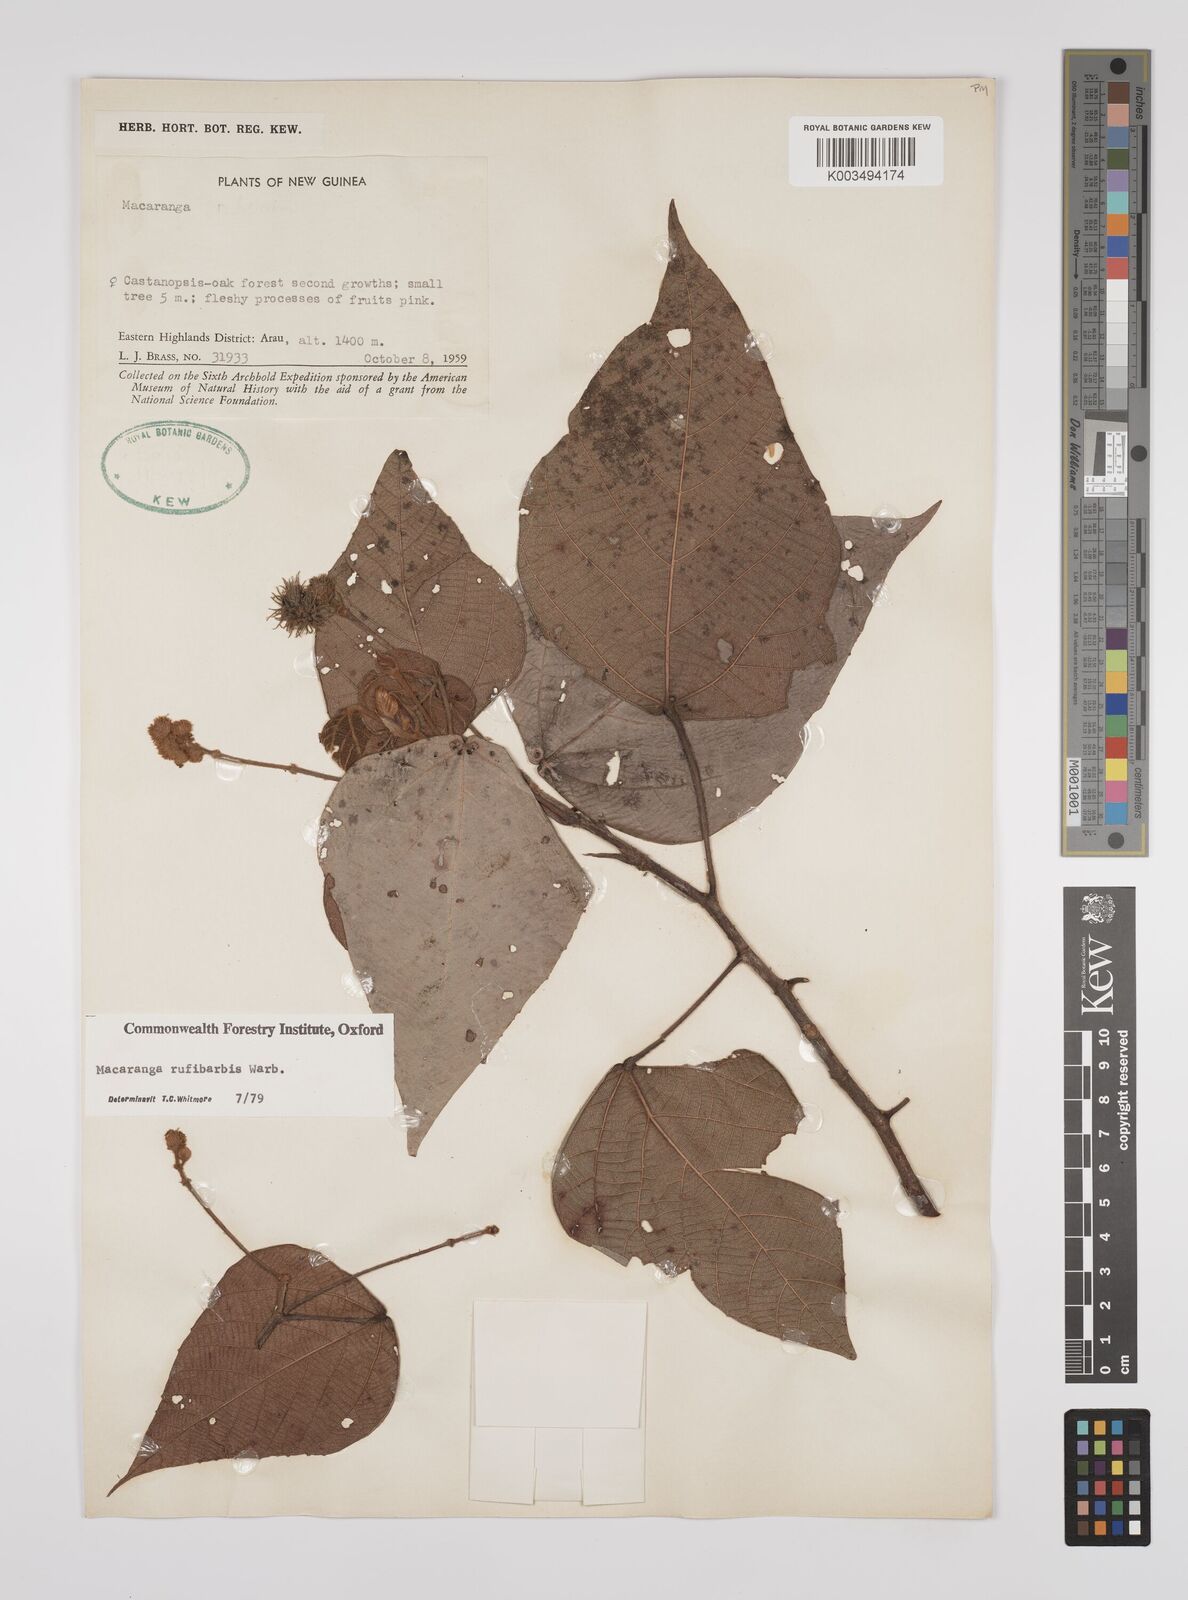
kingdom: Plantae
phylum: Tracheophyta
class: Magnoliopsida
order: Malpighiales
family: Euphorbiaceae
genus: Macaranga
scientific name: Macaranga rufibarbis
